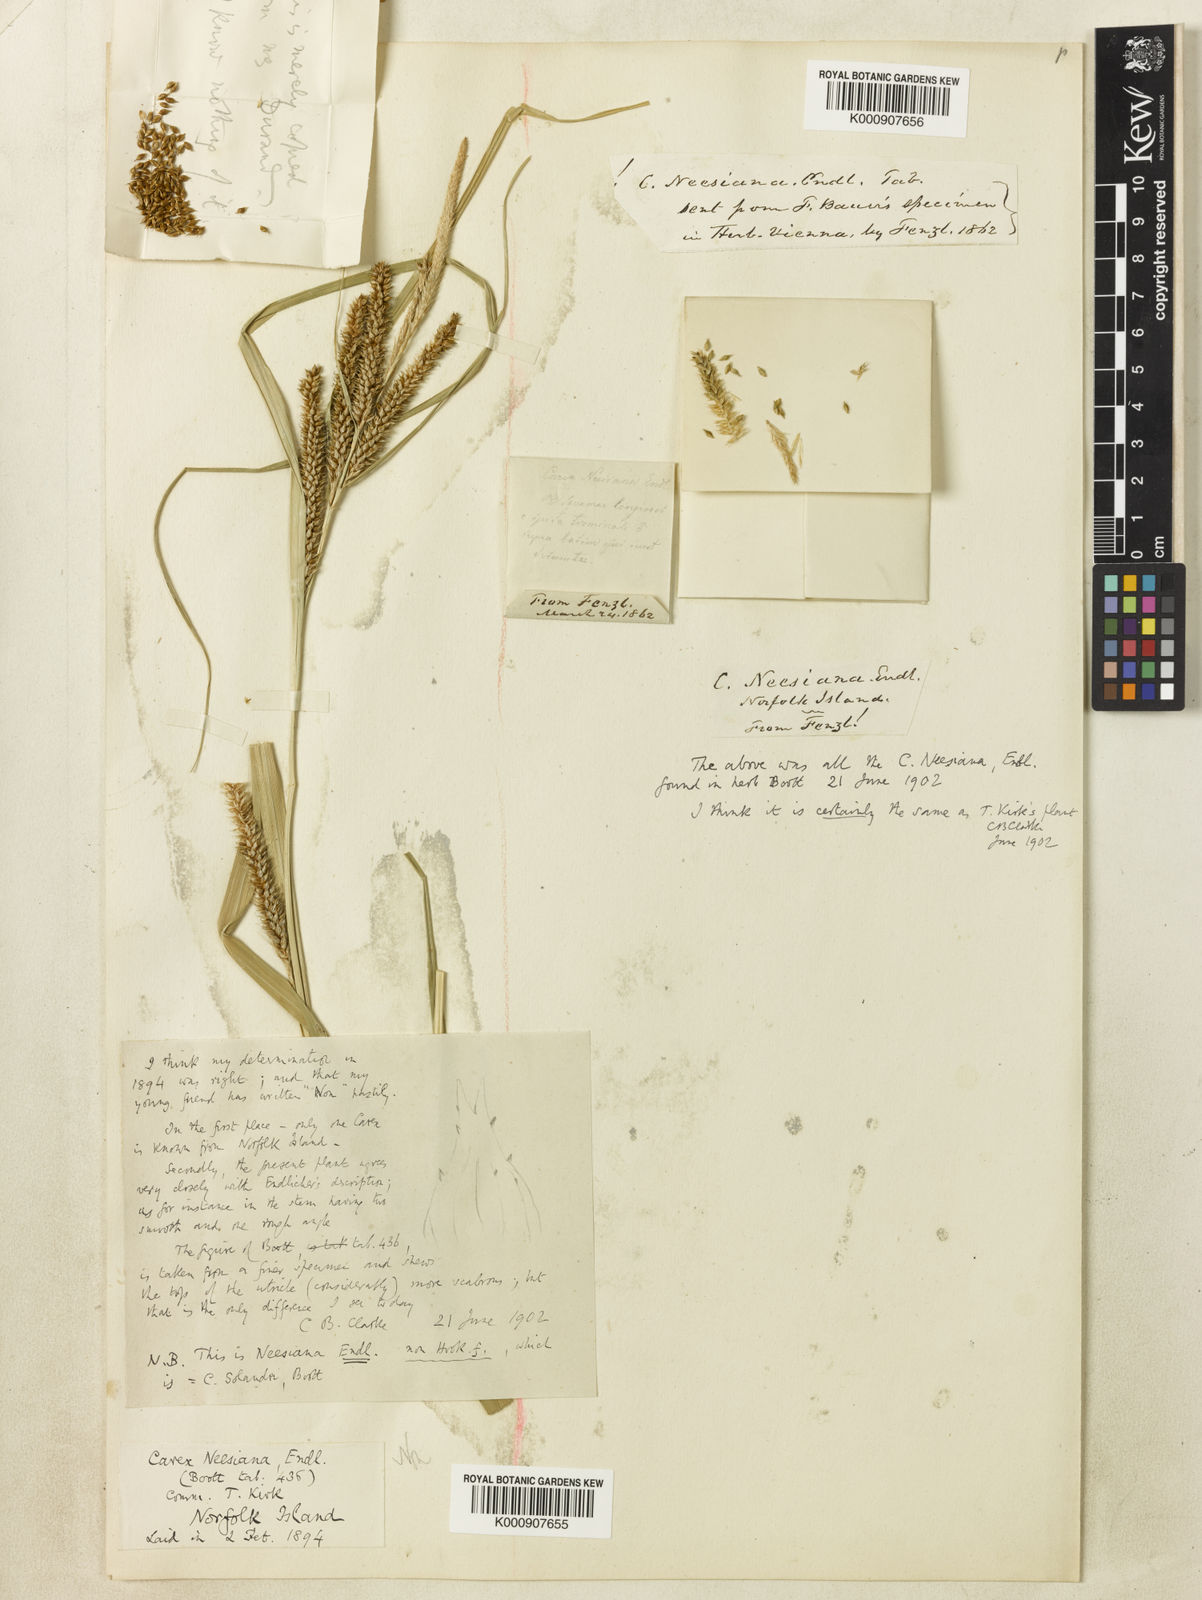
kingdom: Plantae
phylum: Tracheophyta
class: Liliopsida
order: Poales
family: Cyperaceae
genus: Carex
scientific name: Carex neesiana
